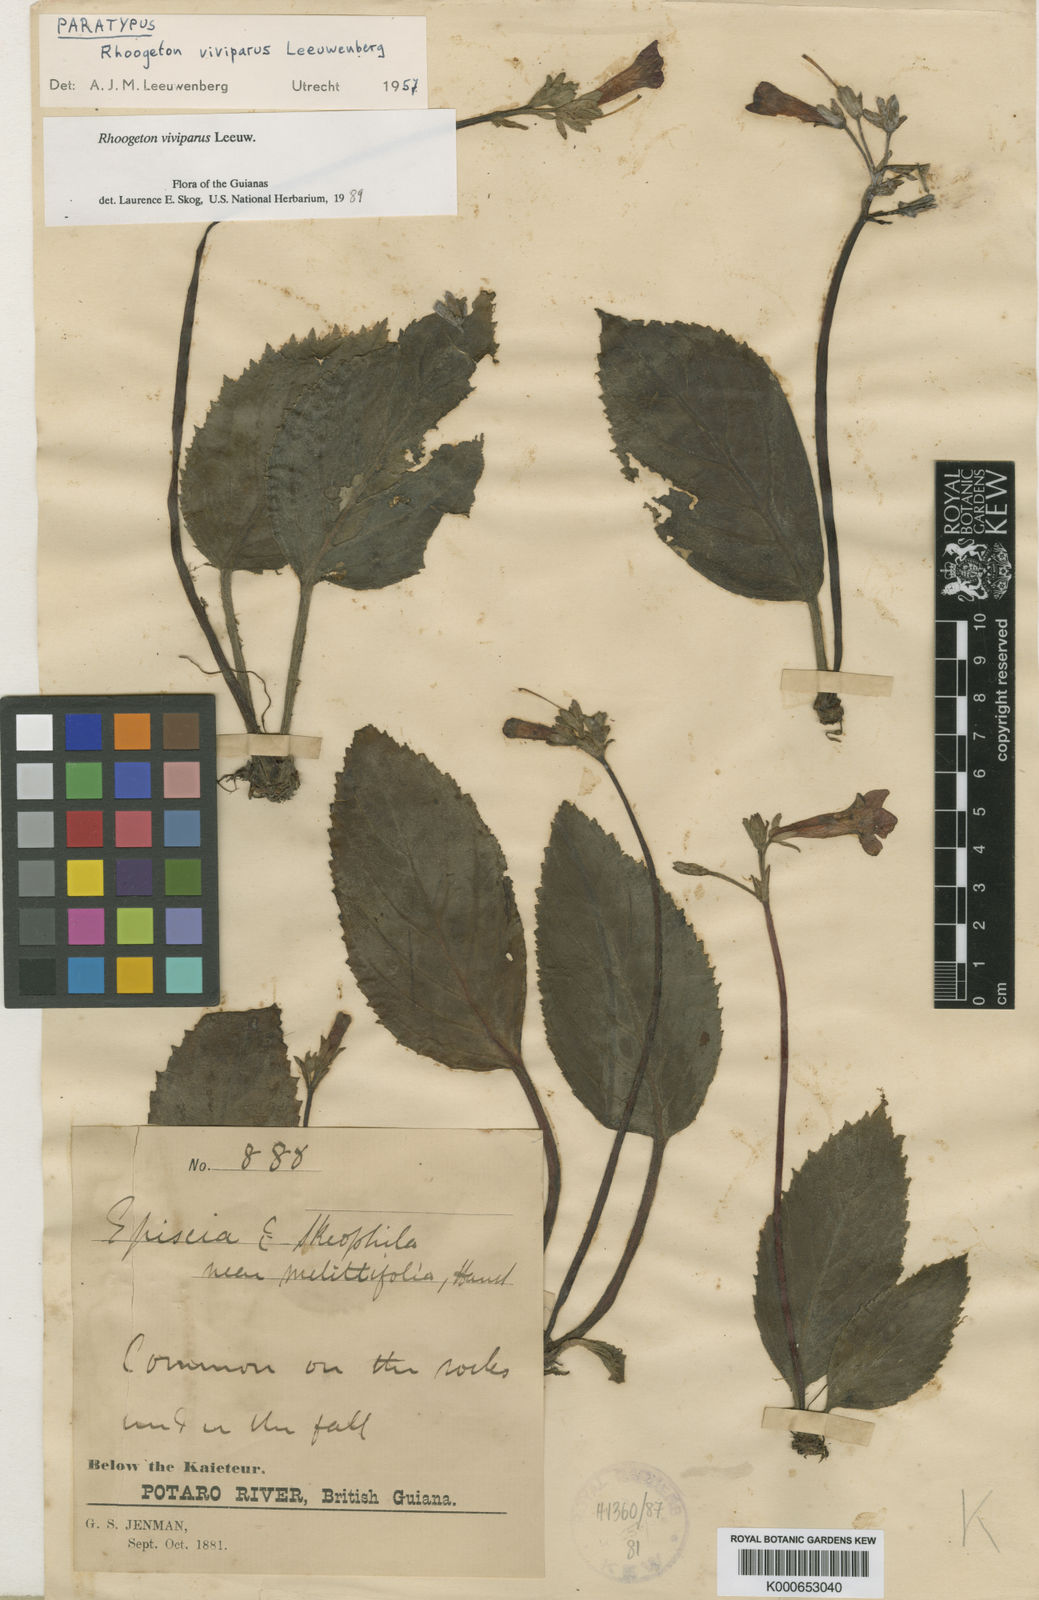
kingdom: Plantae
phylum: Tracheophyta
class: Magnoliopsida
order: Lamiales
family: Gesneriaceae
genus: Rhoogeton
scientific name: Rhoogeton
